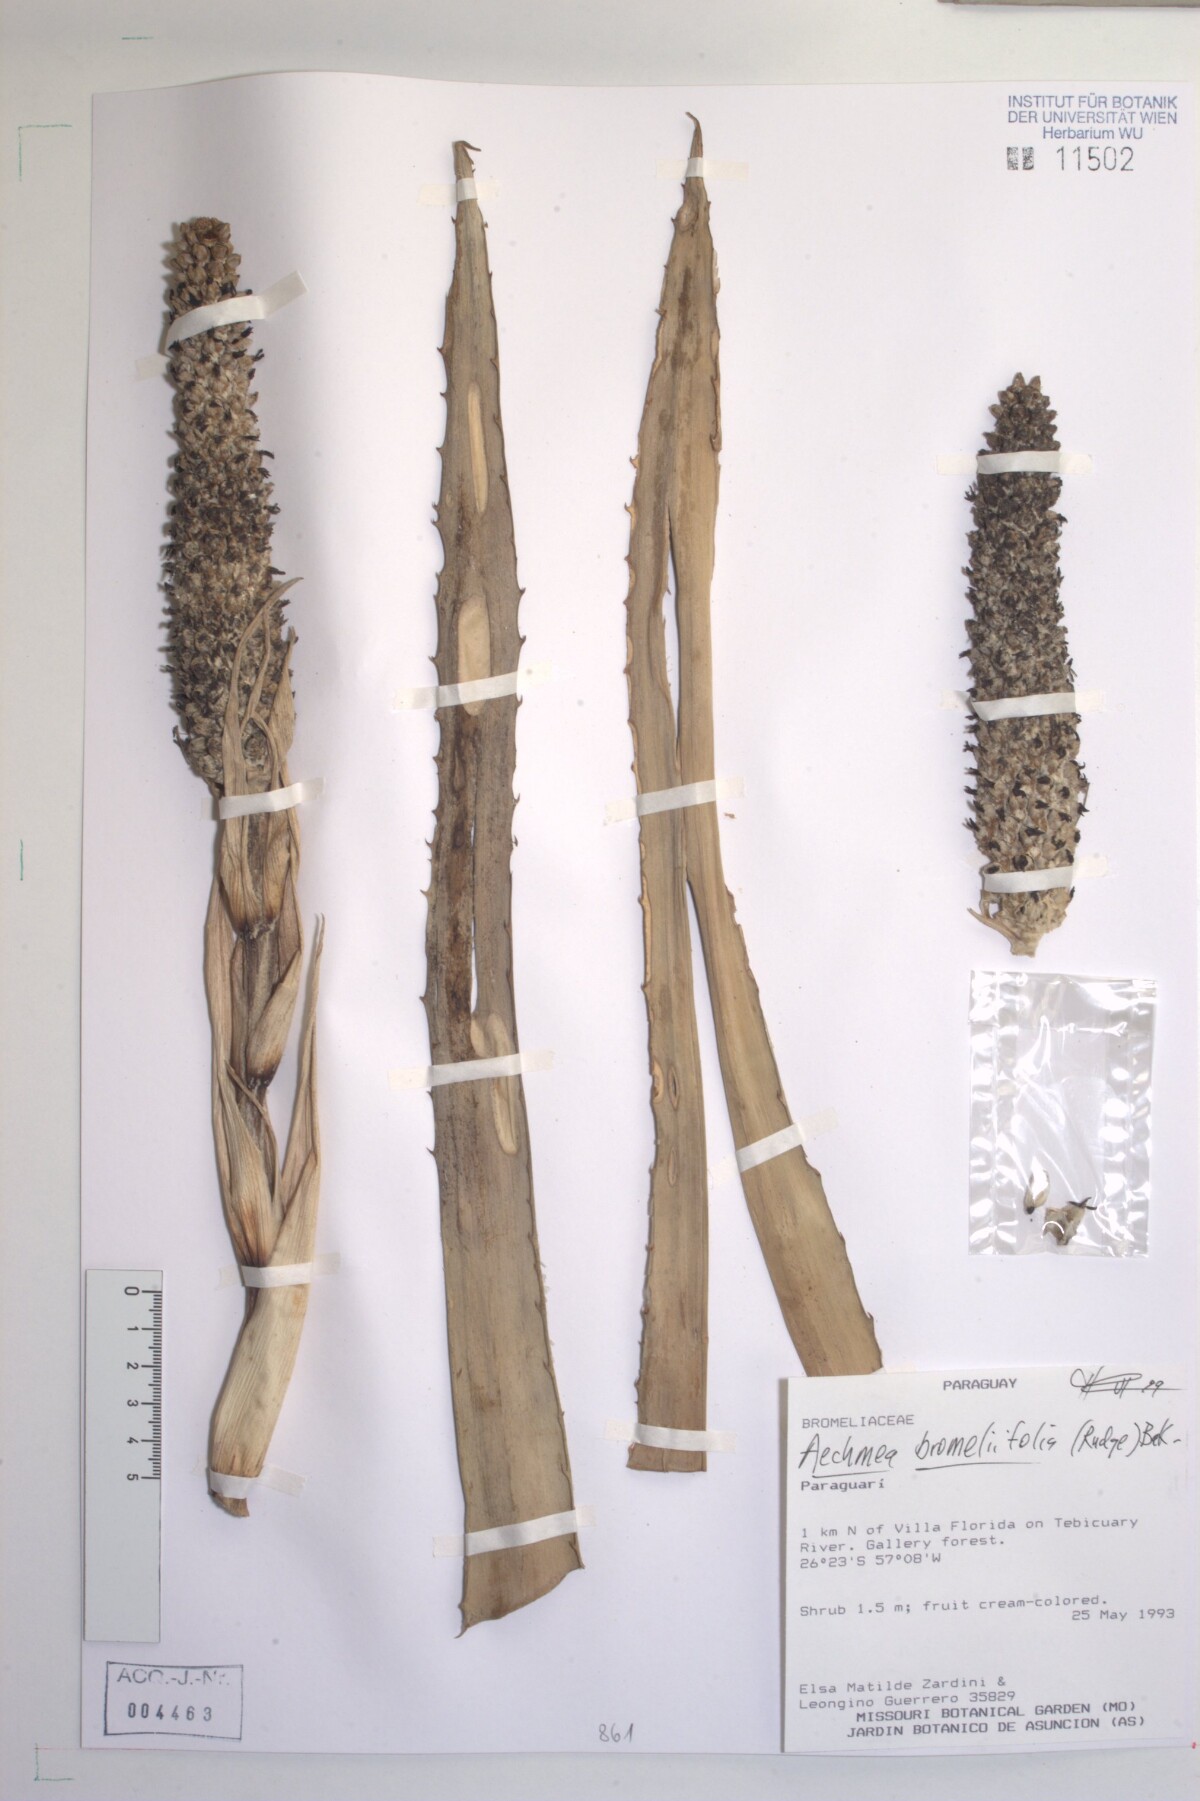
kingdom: Plantae
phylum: Tracheophyta
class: Liliopsida
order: Poales
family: Bromeliaceae
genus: Aechmea
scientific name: Aechmea bromeliifolia
